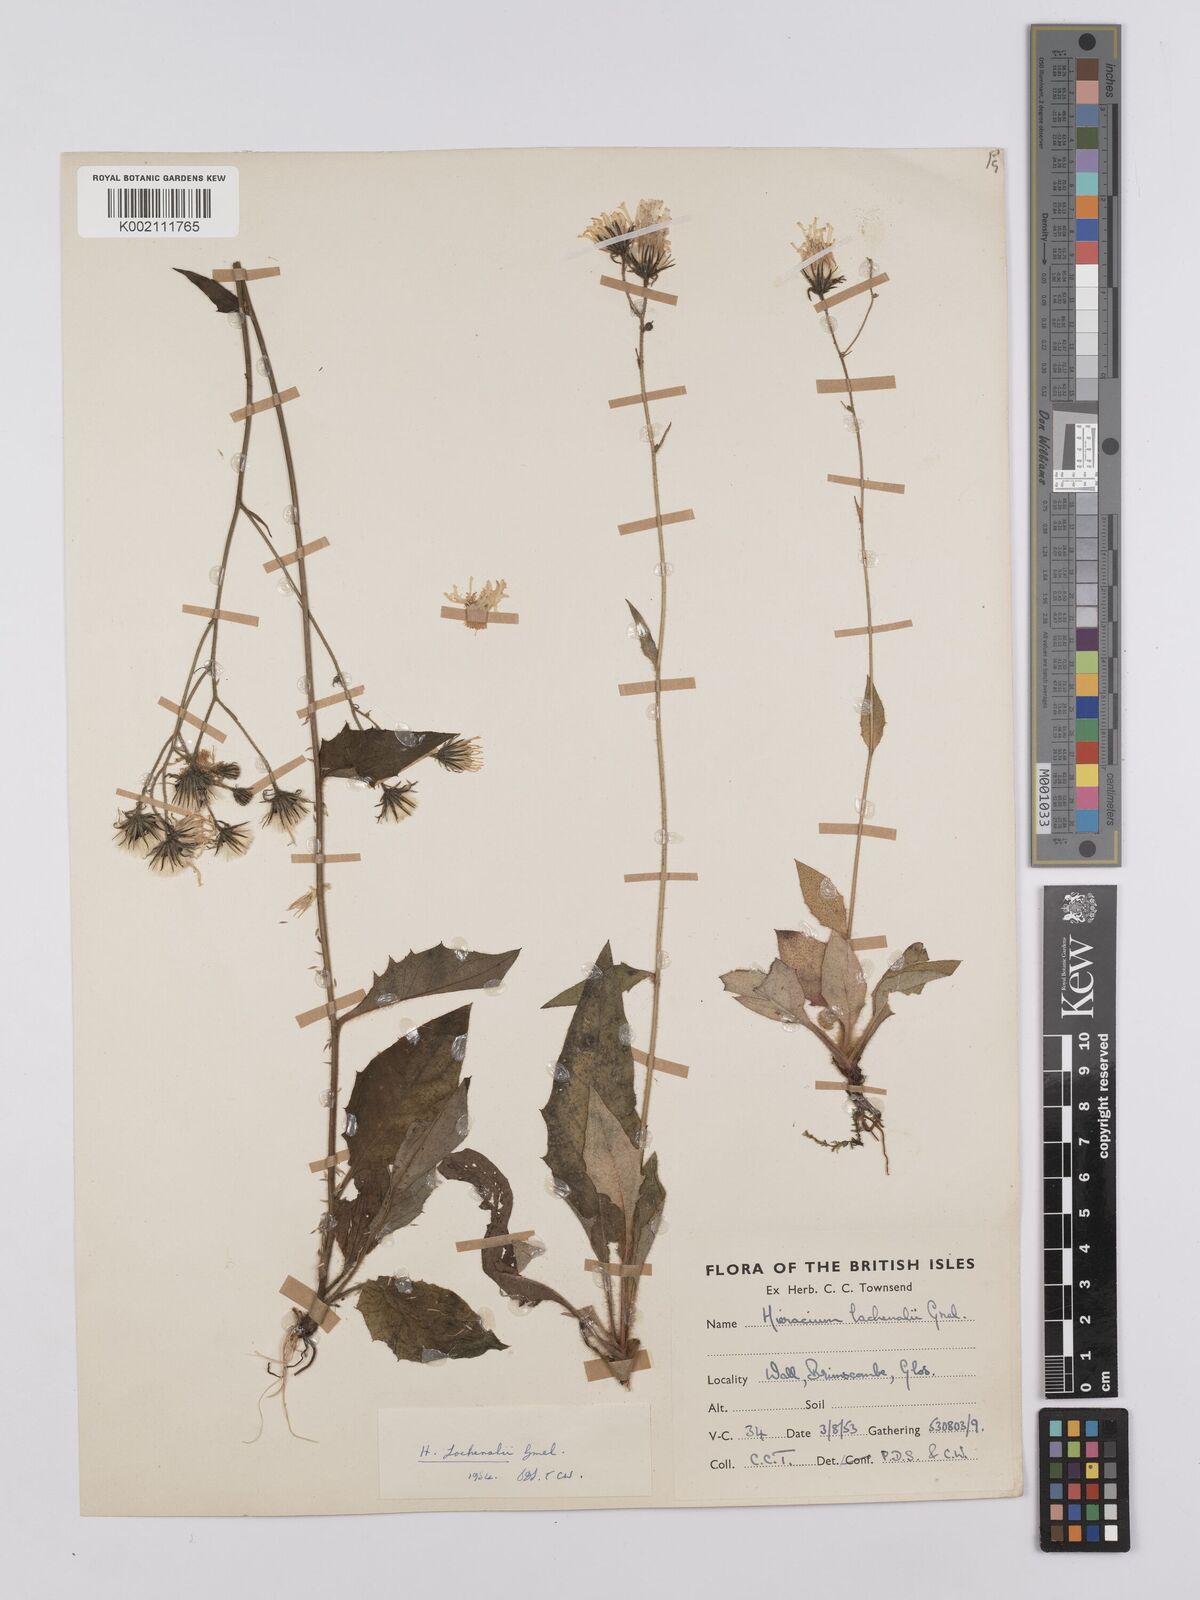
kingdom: Plantae
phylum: Tracheophyta
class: Magnoliopsida
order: Asterales
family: Asteraceae
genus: Hieracium
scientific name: Hieracium lachenalii
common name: Common hawkweed
